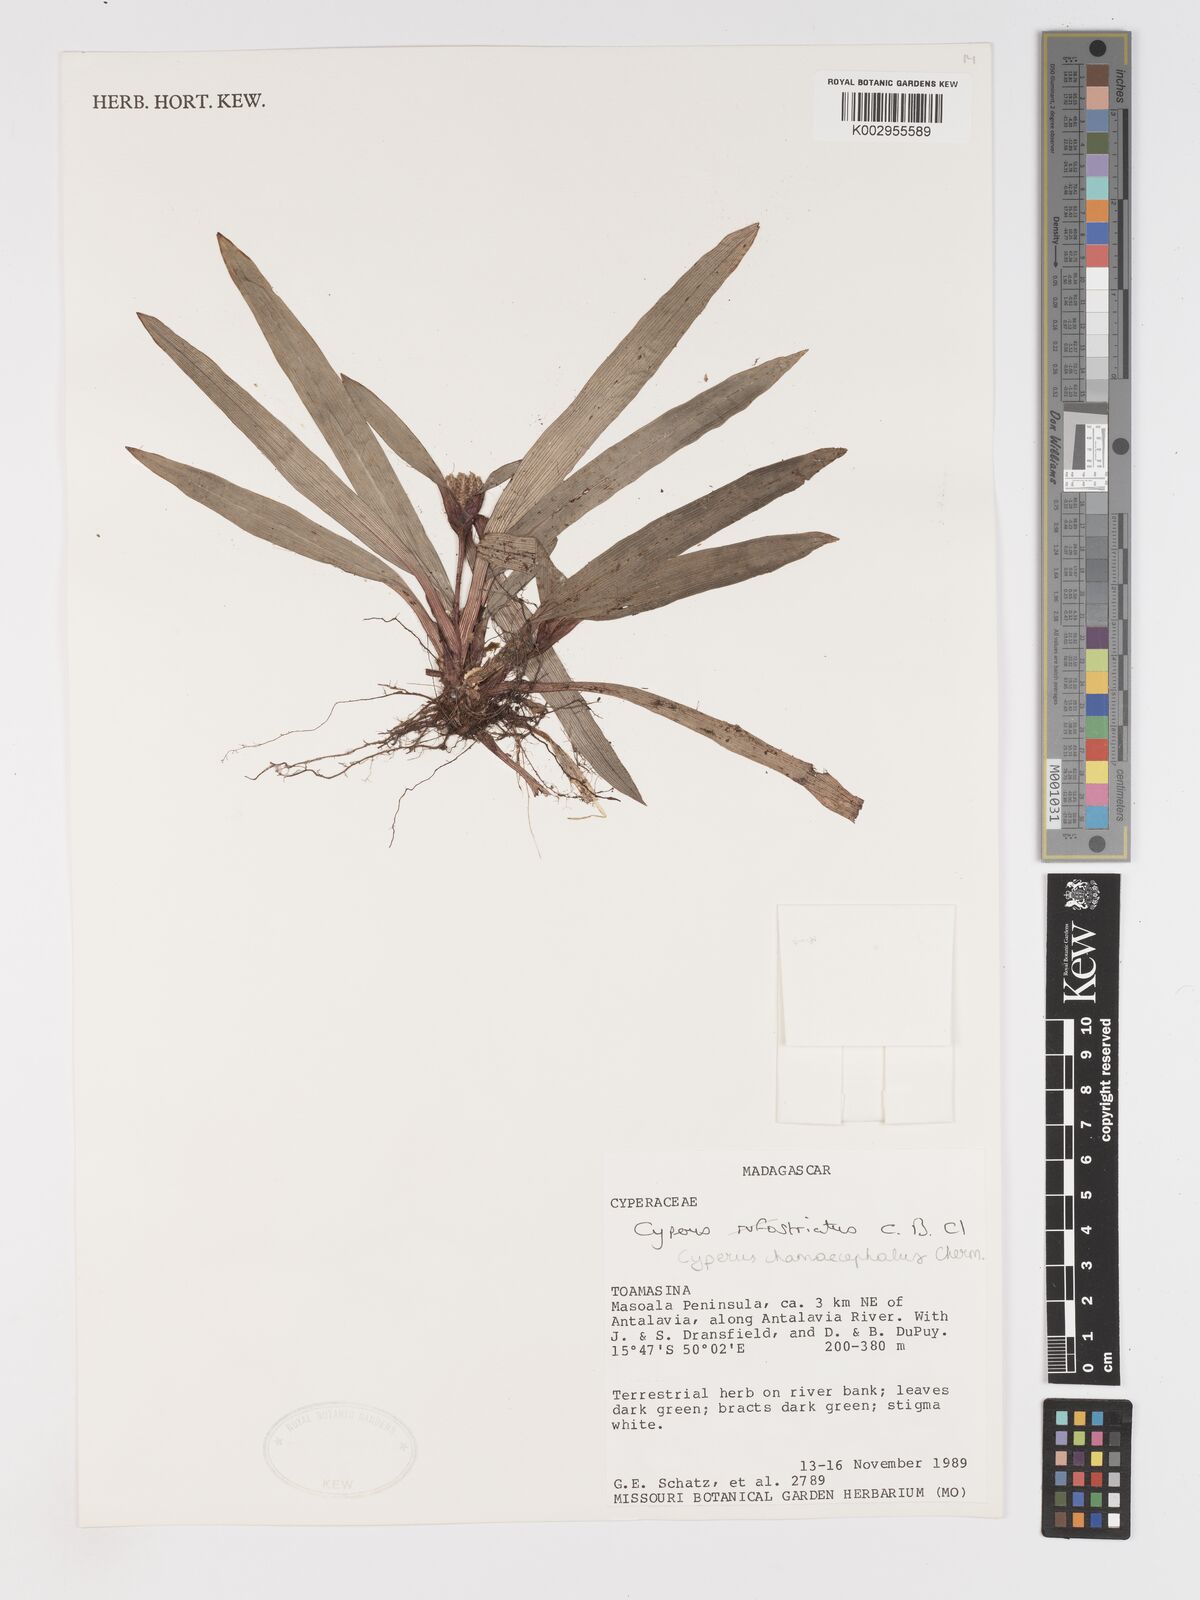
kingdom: Plantae
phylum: Tracheophyta
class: Liliopsida
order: Poales
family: Cyperaceae
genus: Cyperus
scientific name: Cyperus chamaecephalus
